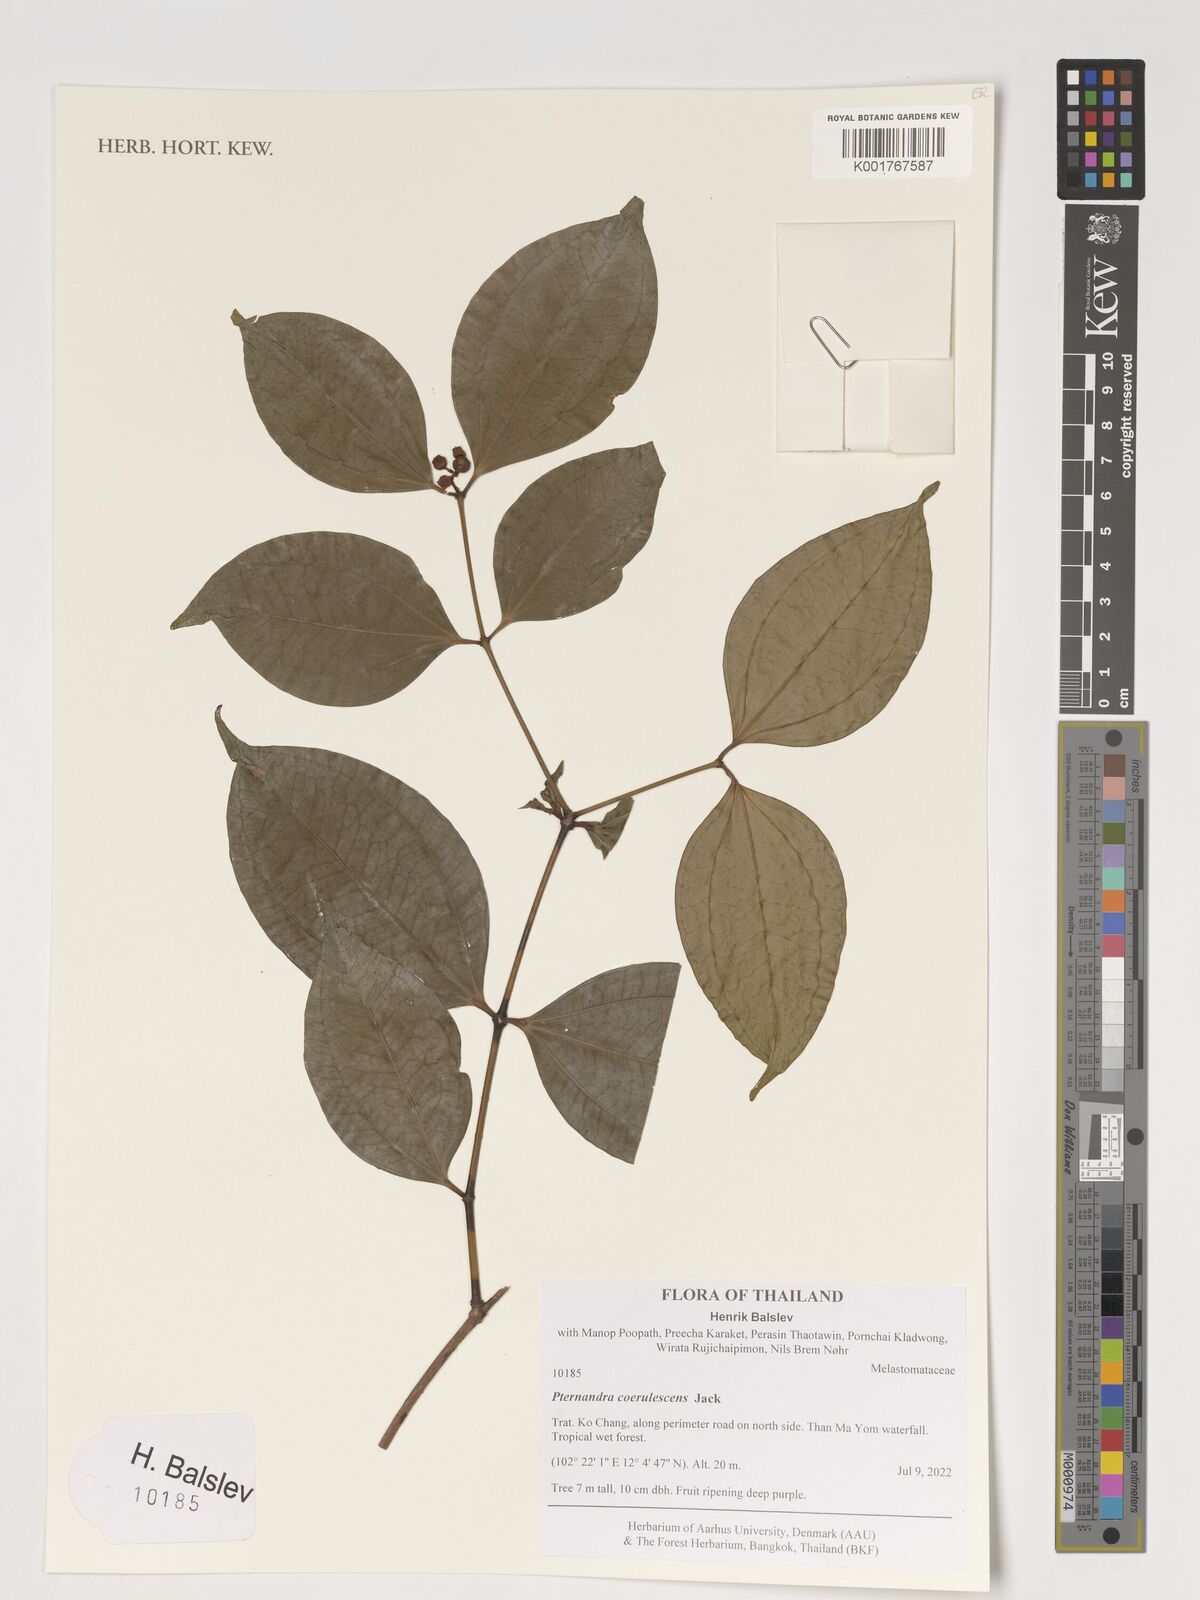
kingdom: Plantae
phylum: Tracheophyta
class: Magnoliopsida
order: Myrtales
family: Melastomataceae
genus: Pternandra
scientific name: Pternandra coerulescens
